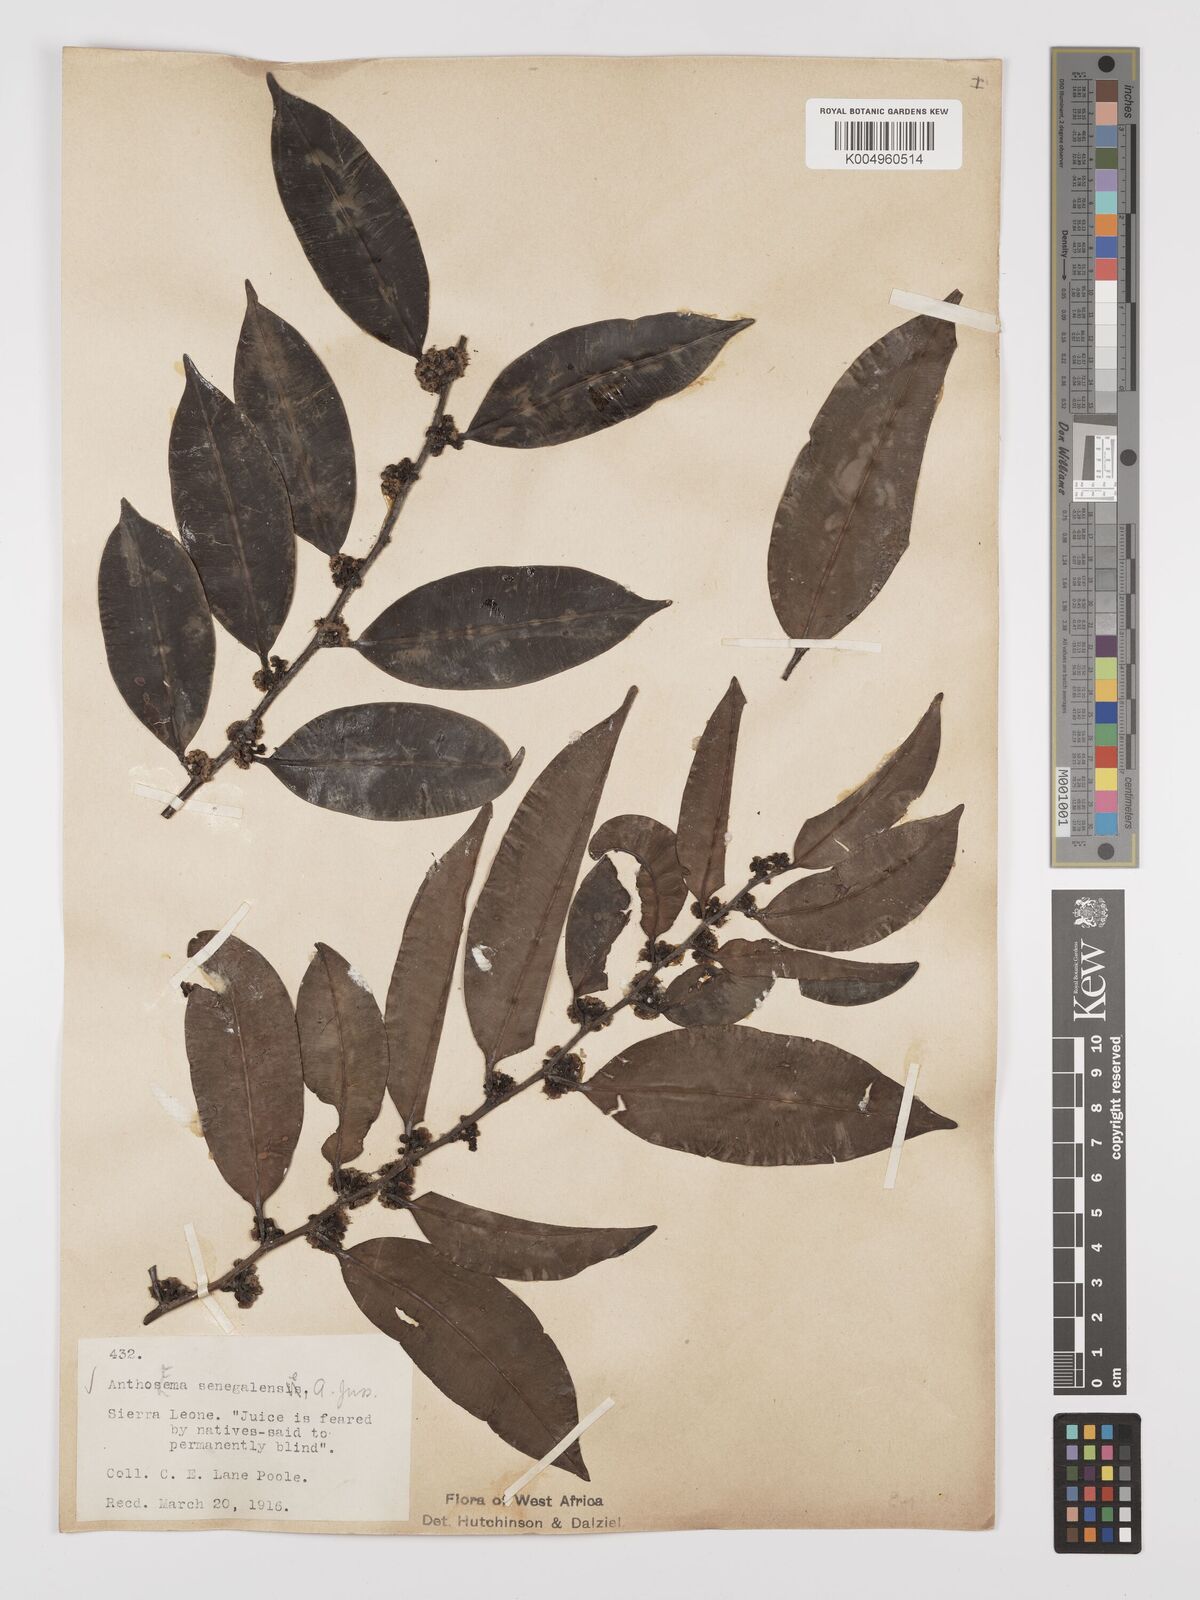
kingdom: Plantae
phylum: Tracheophyta
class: Magnoliopsida
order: Malpighiales
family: Euphorbiaceae
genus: Anthostema
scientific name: Anthostema senegalense
